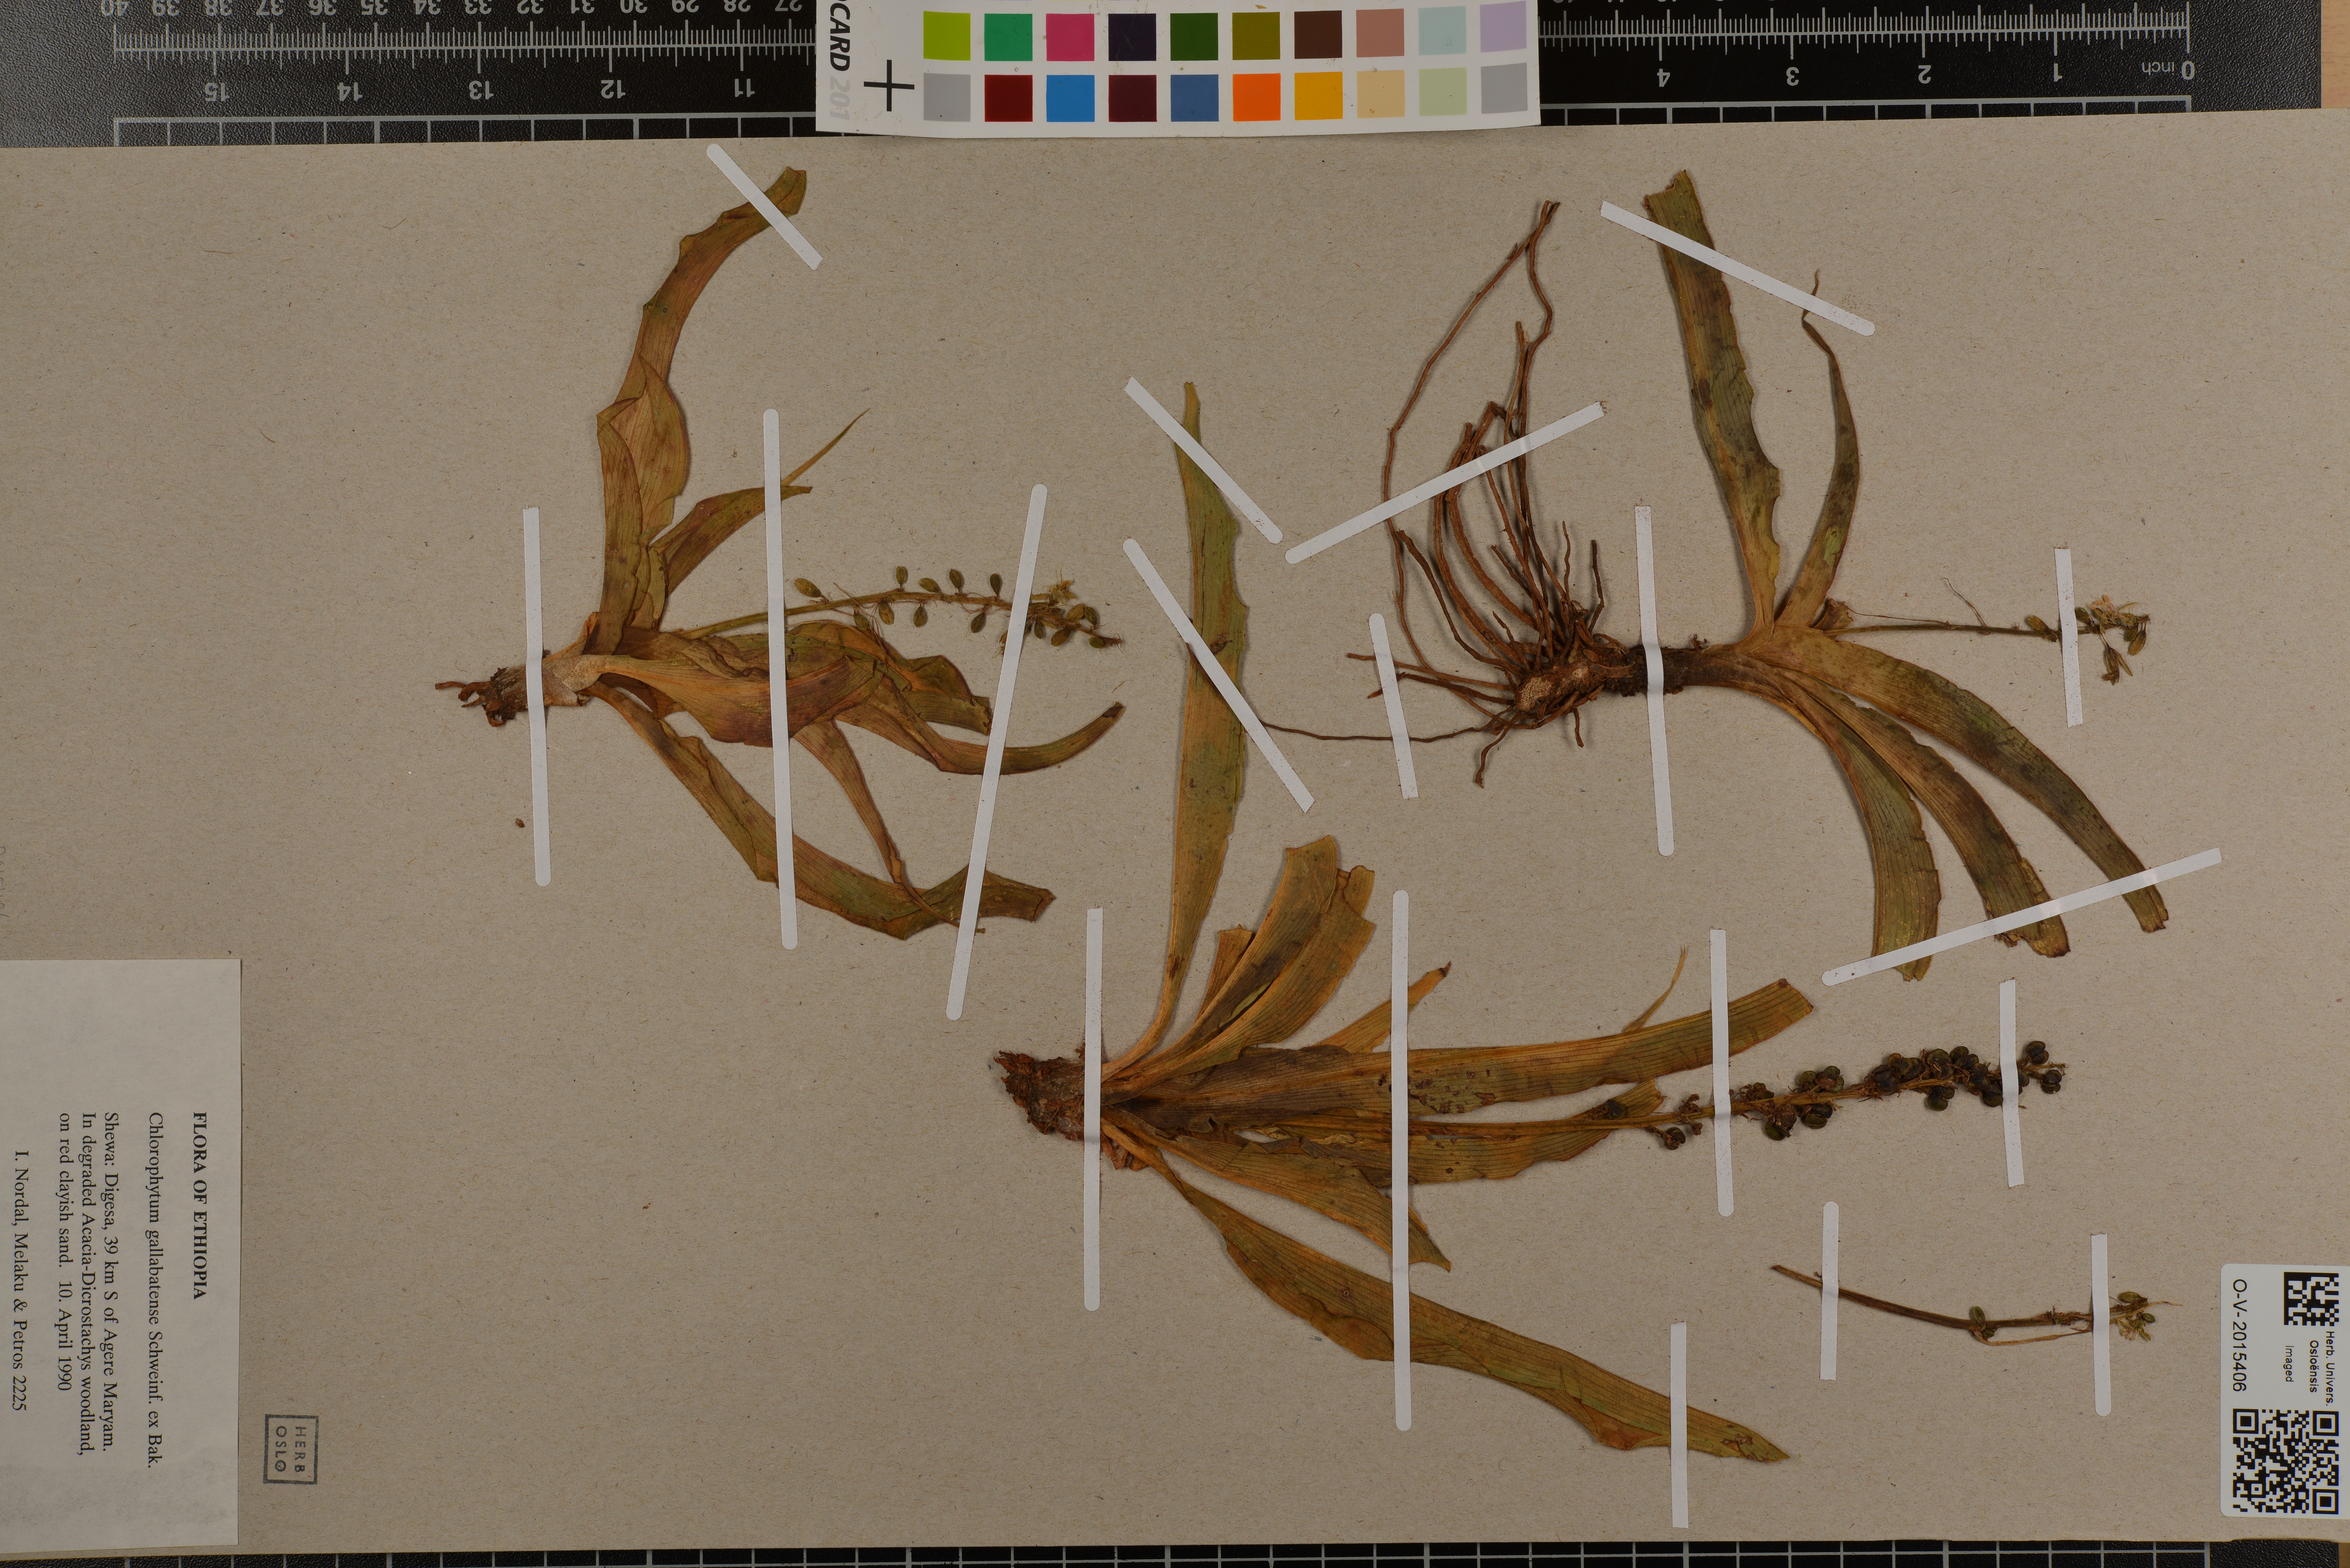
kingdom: Plantae
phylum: Tracheophyta
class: Liliopsida
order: Asparagales
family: Asparagaceae
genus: Chlorophytum
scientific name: Chlorophytum gallabatense
